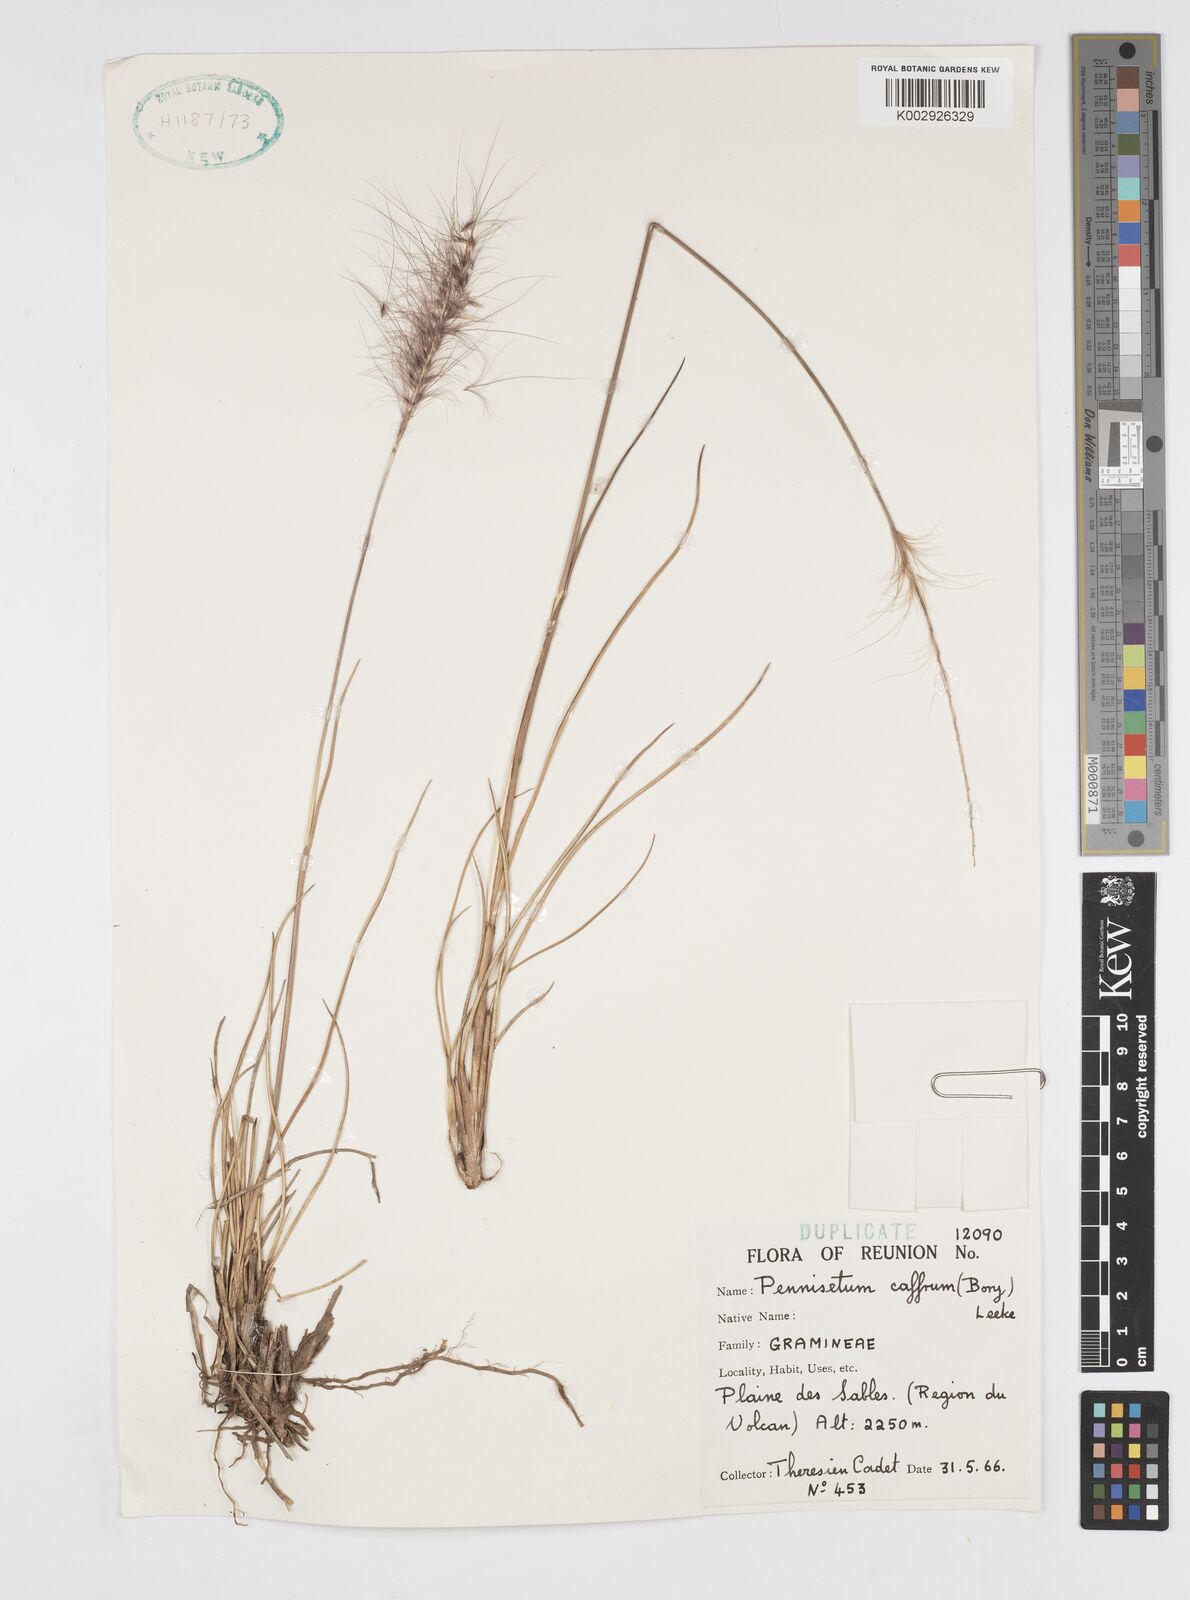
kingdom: Plantae
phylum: Tracheophyta
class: Liliopsida
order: Poales
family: Poaceae
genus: Cenchrus
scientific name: Cenchrus cafer
